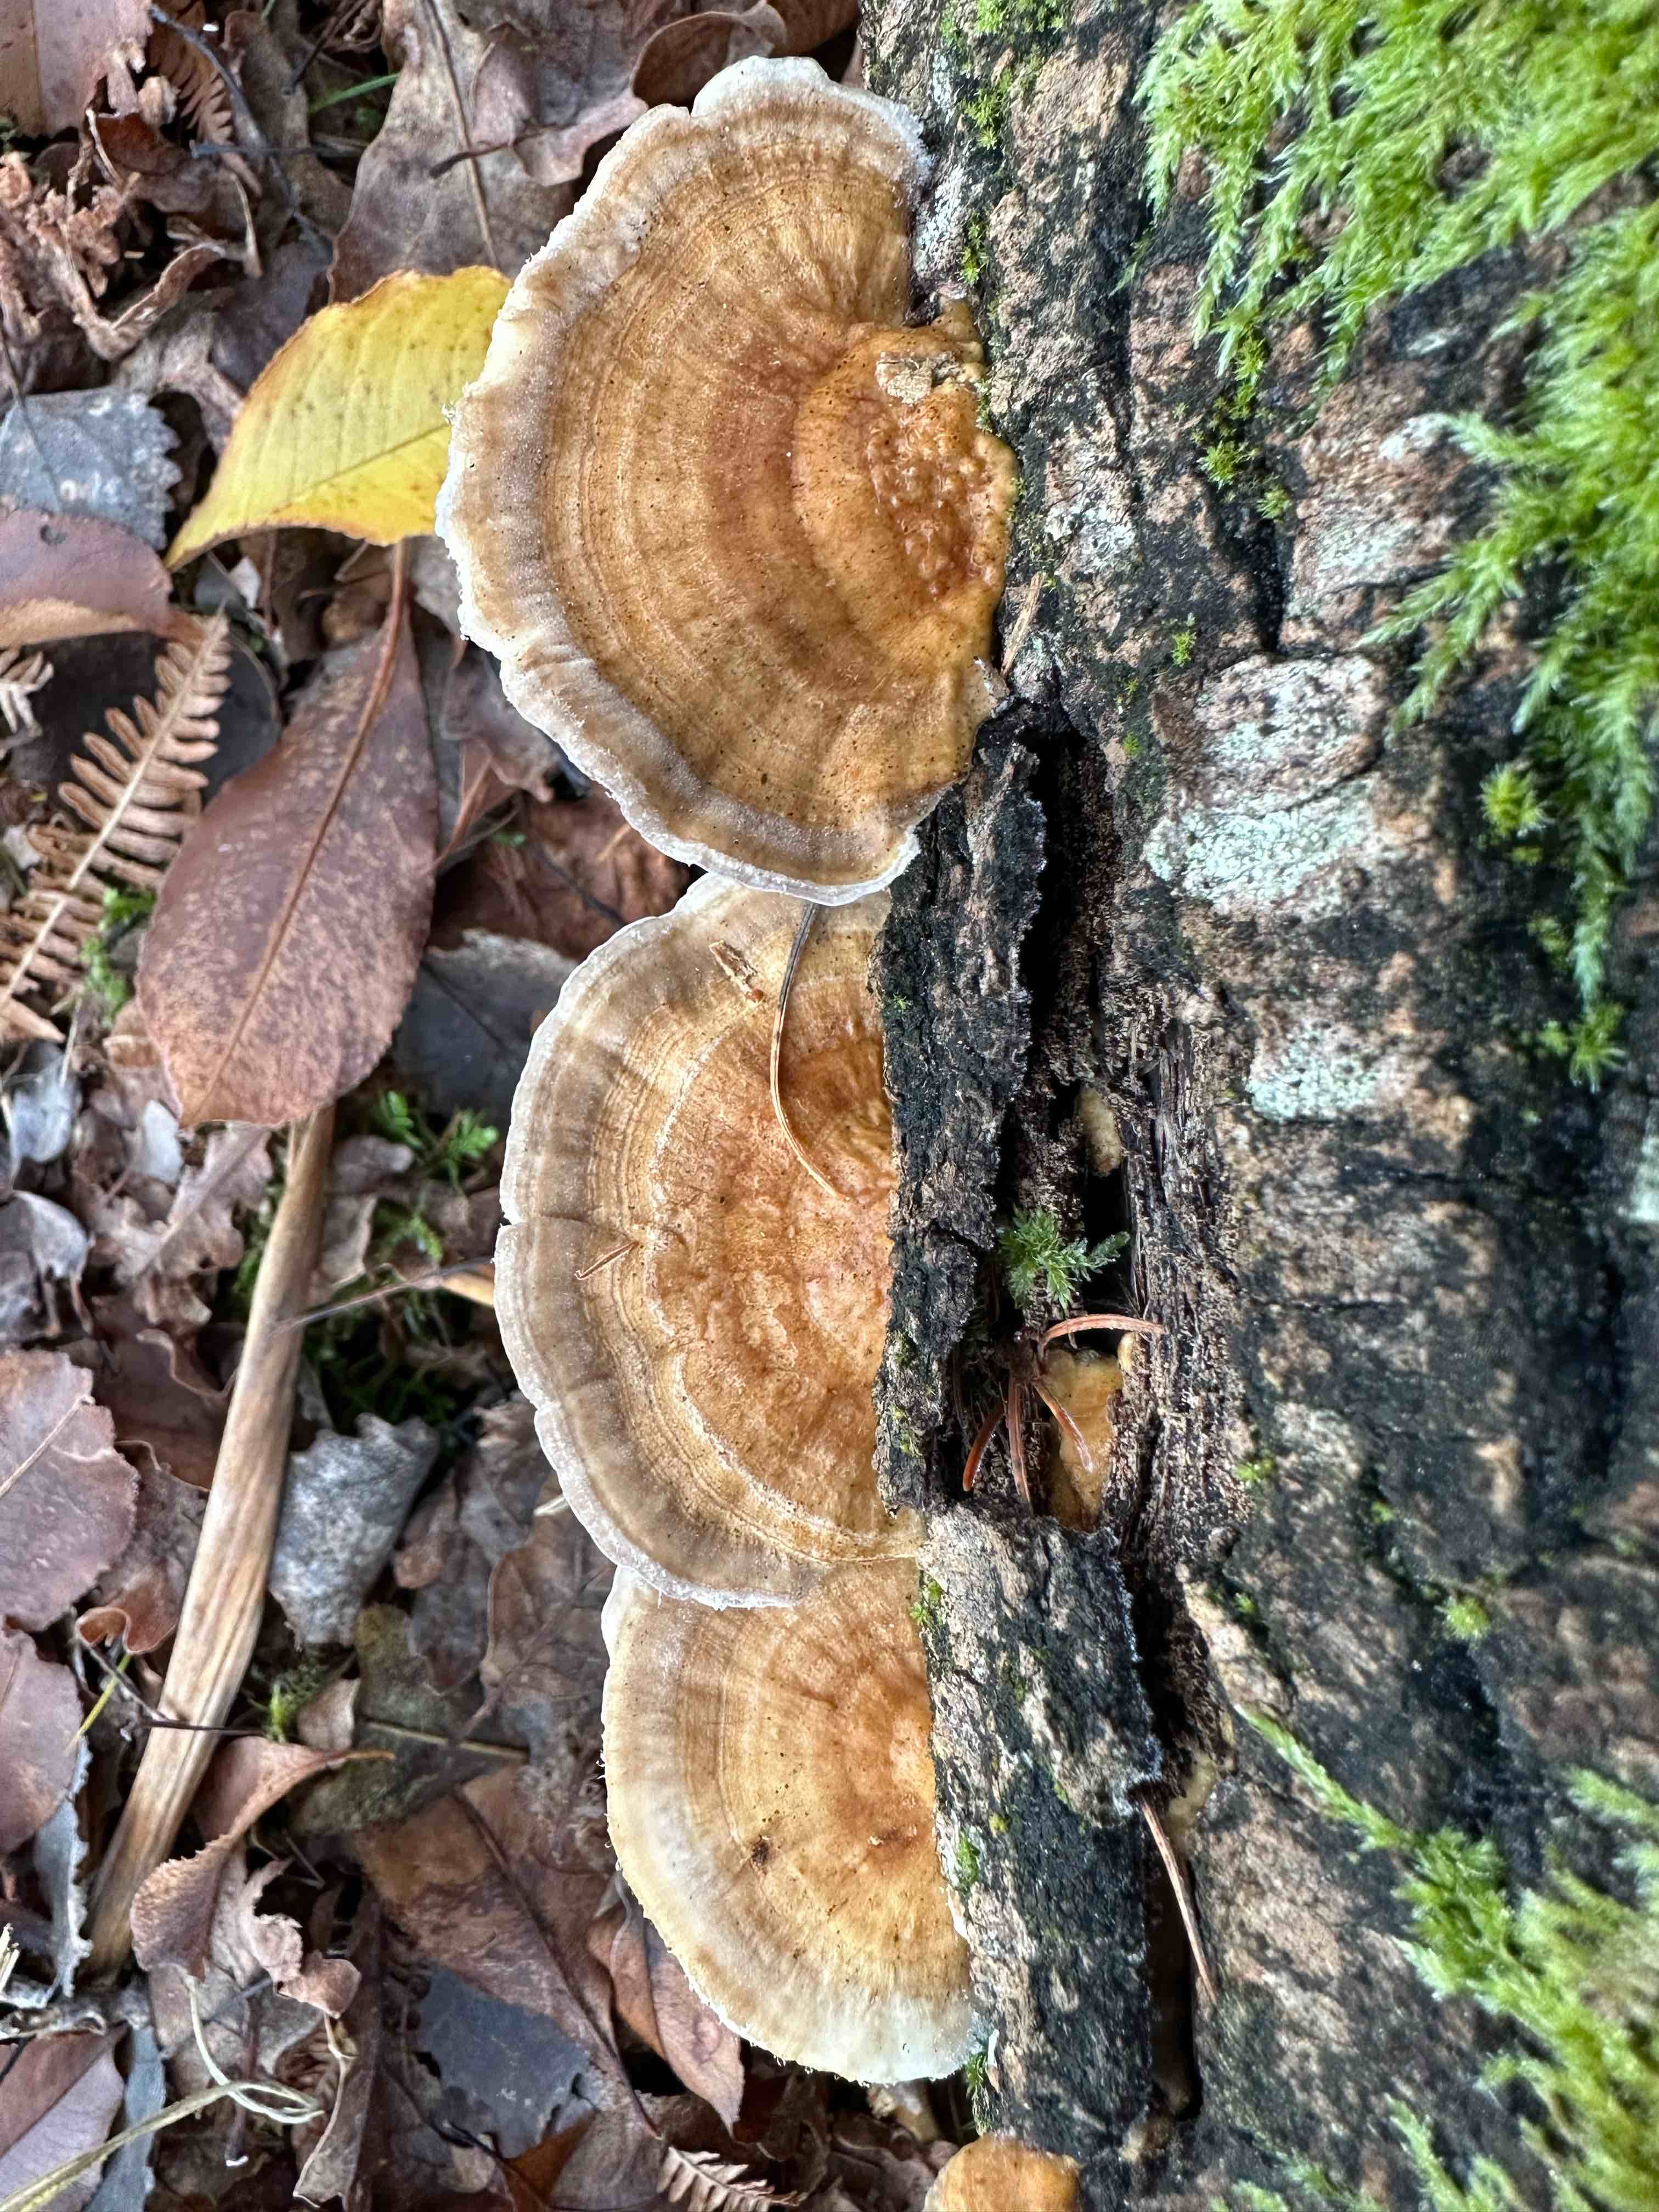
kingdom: Fungi
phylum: Basidiomycota
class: Agaricomycetes
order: Polyporales
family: Polyporaceae
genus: Trametes
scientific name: Trametes ochracea
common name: bæltet læderporesvamp
